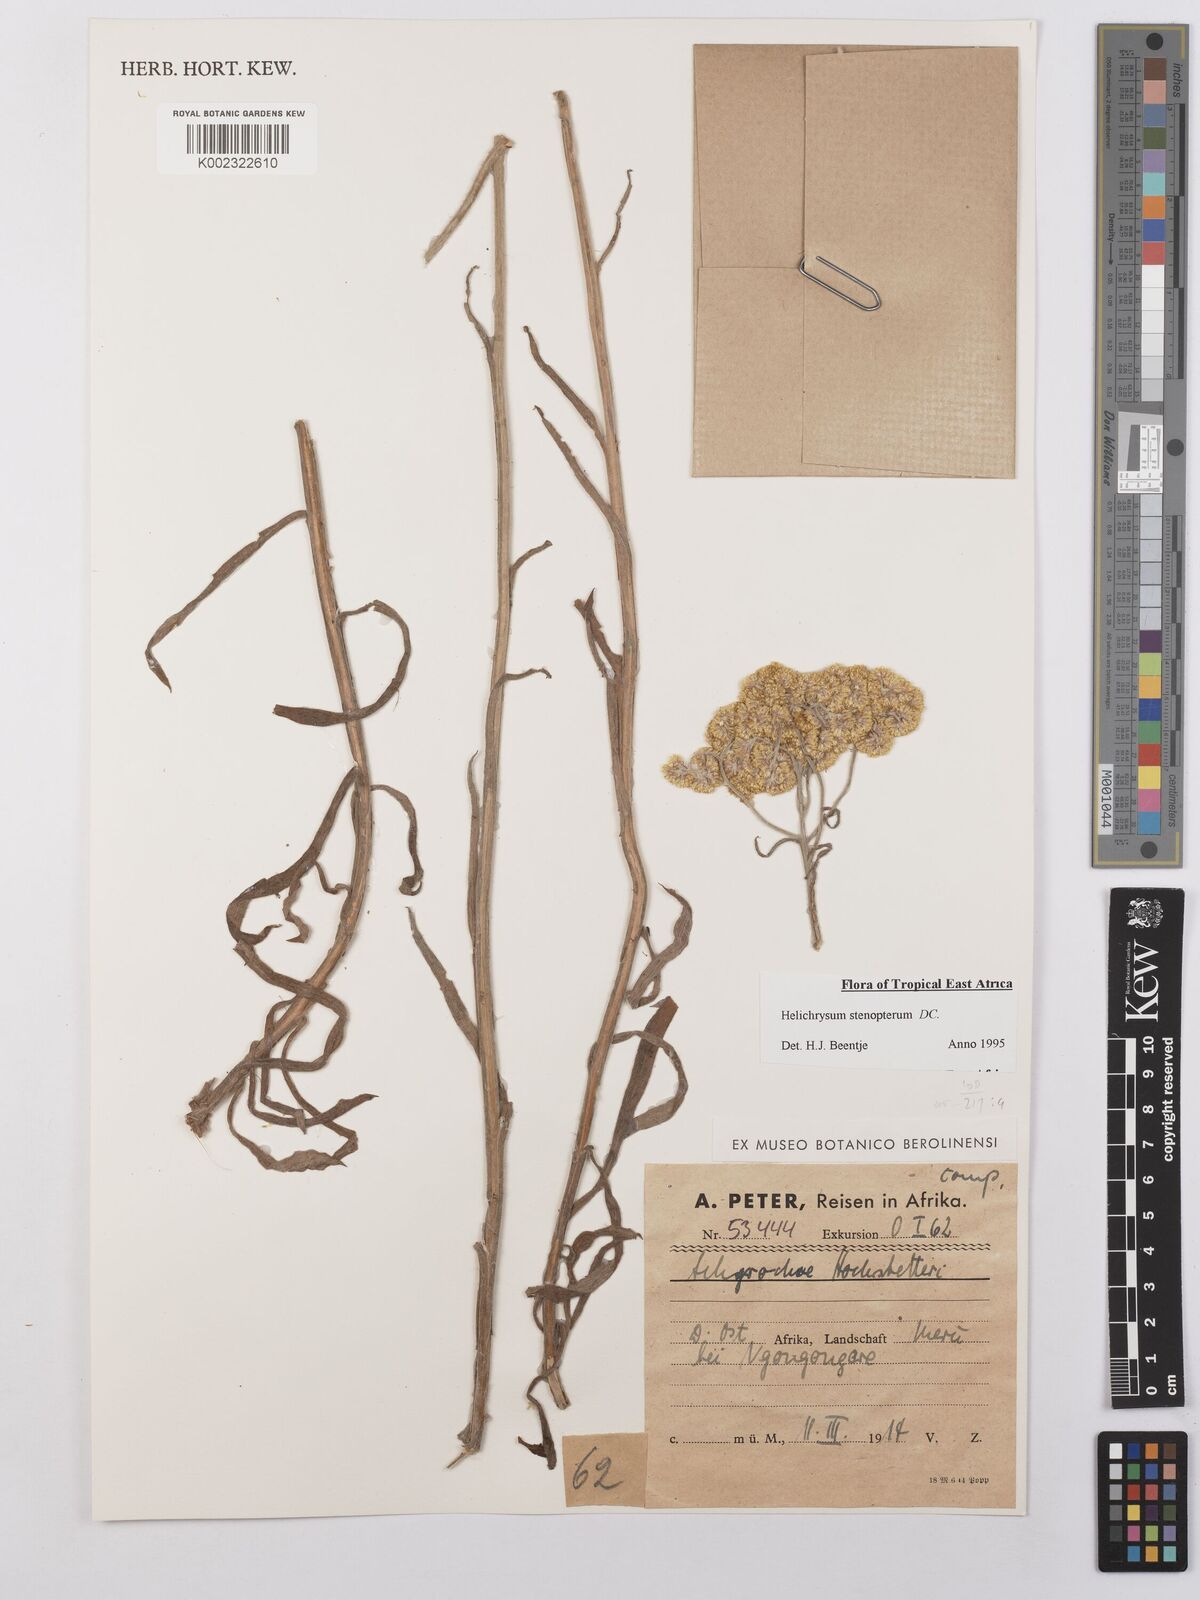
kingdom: Plantae
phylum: Tracheophyta
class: Magnoliopsida
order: Asterales
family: Asteraceae
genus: Helichrysum
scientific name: Helichrysum stenopterum
